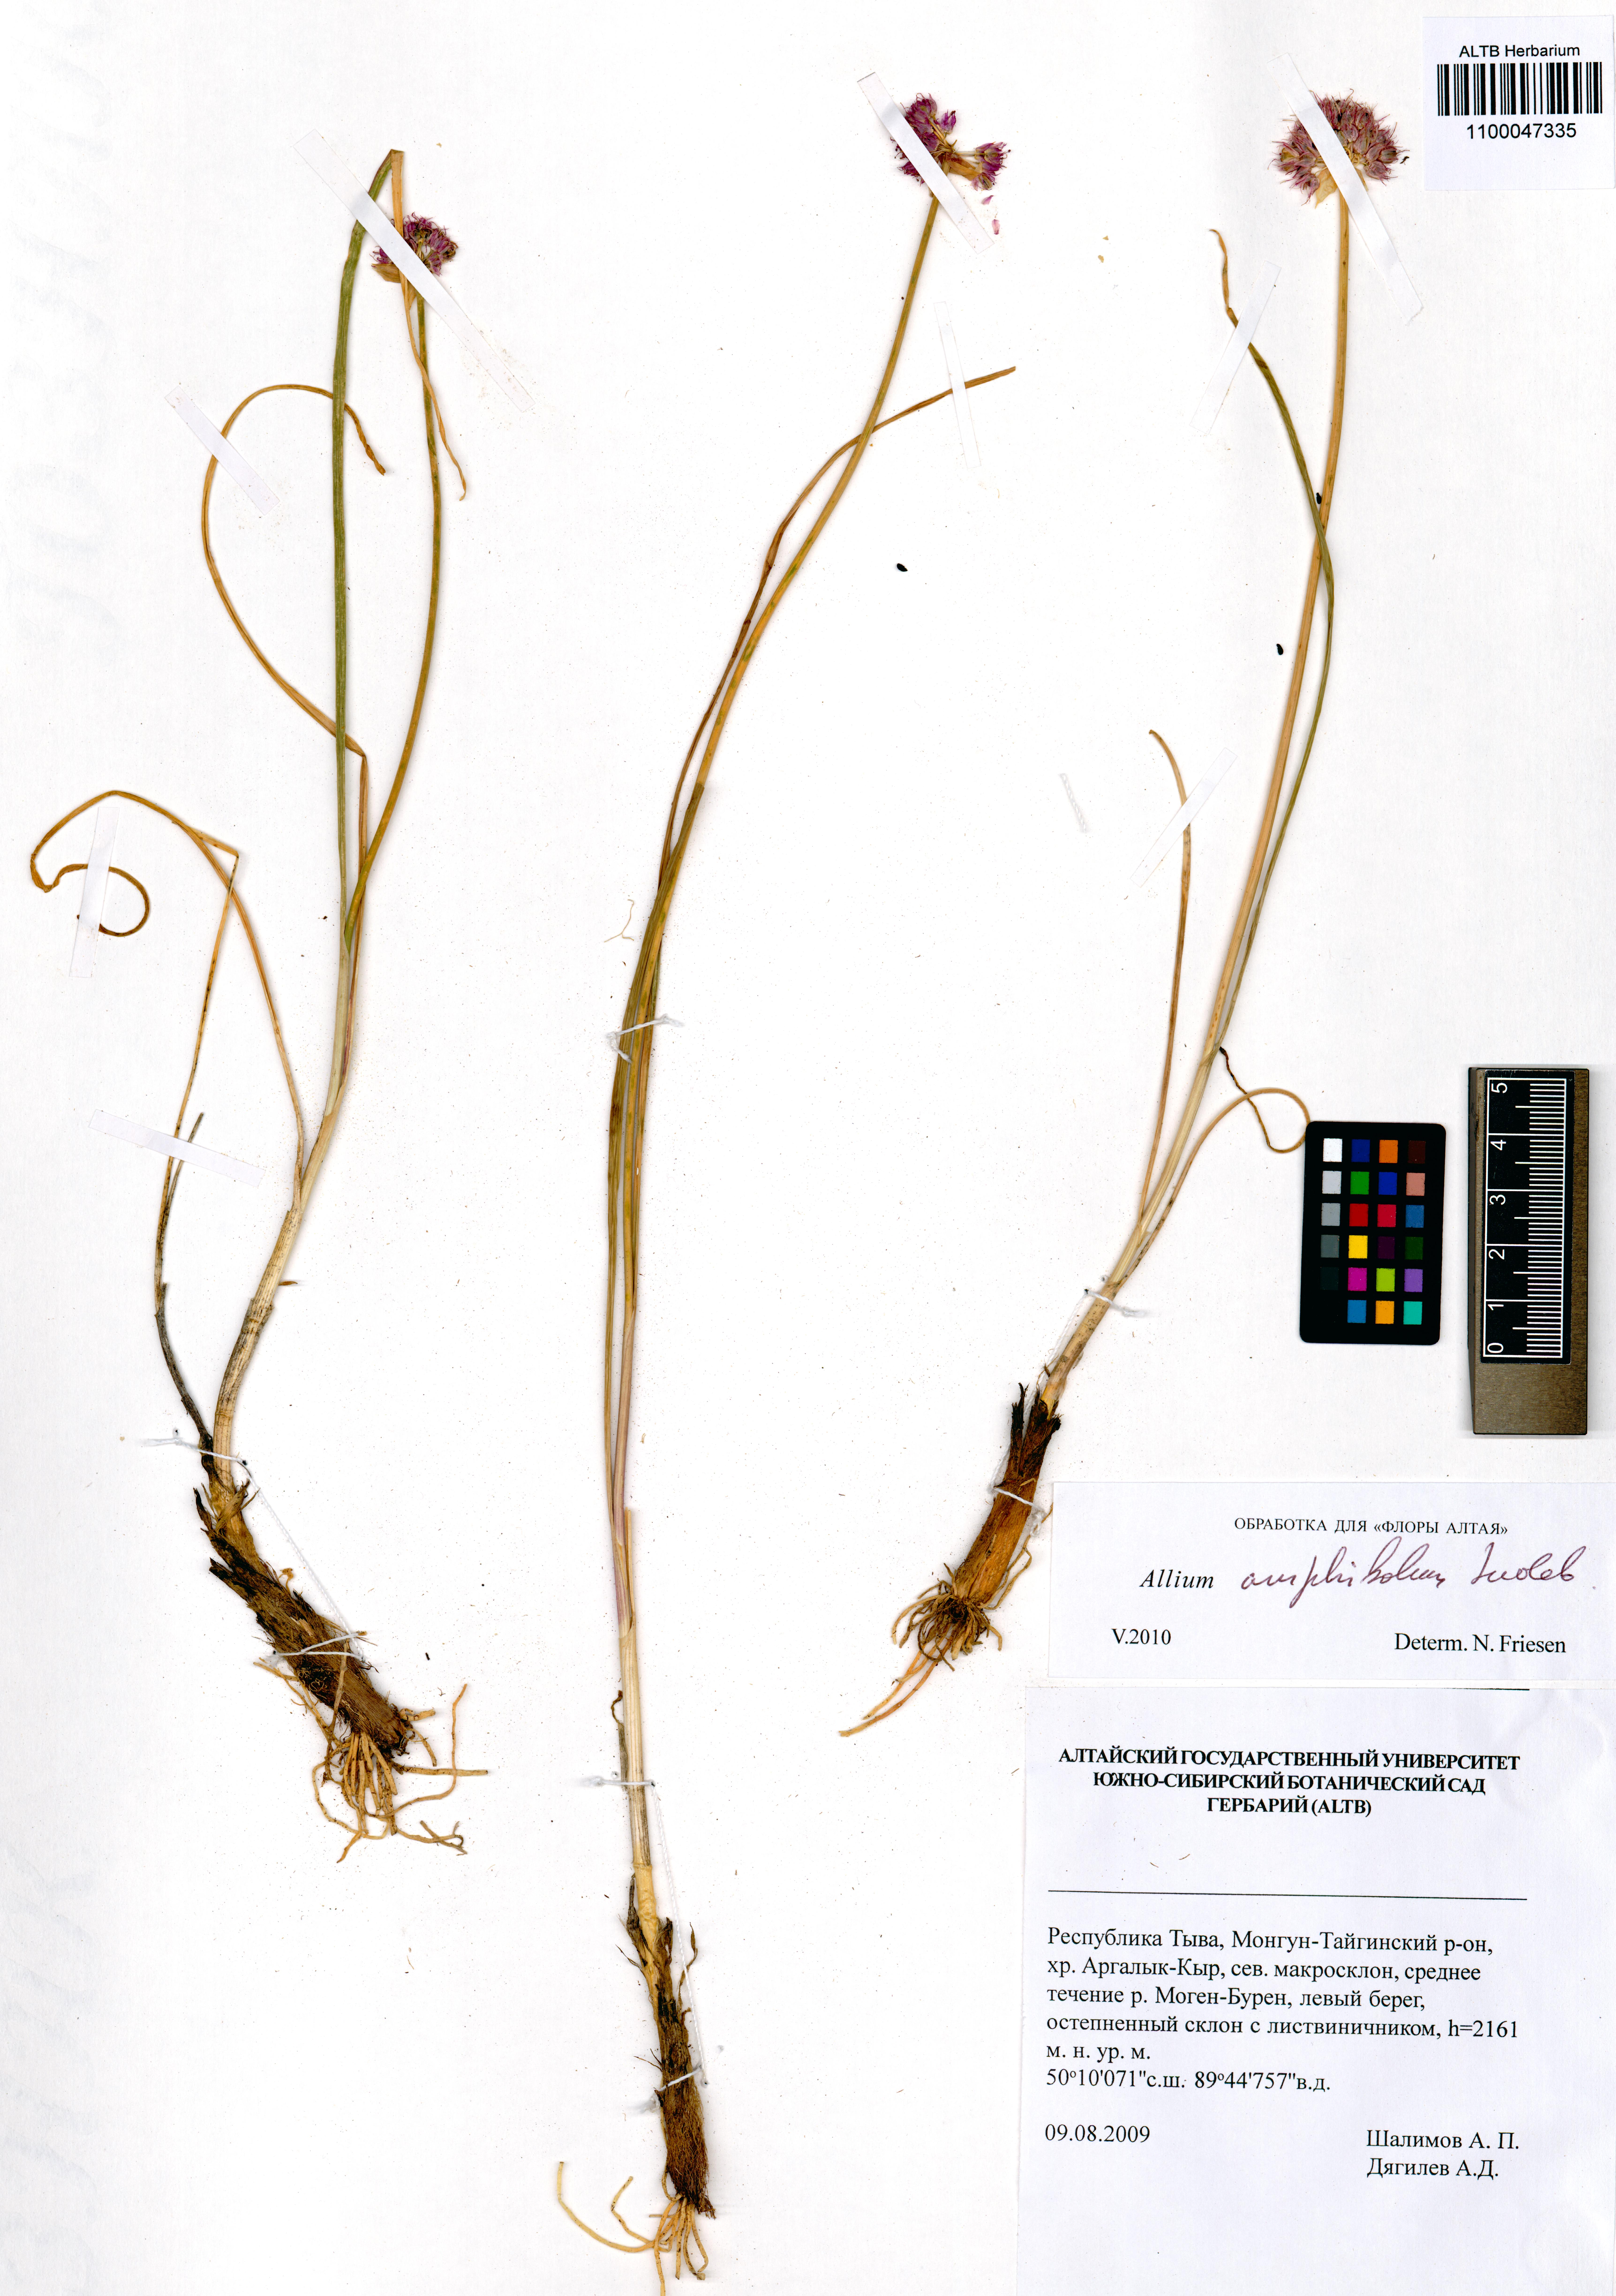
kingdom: Plantae
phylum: Tracheophyta
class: Liliopsida
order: Asparagales
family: Amaryllidaceae
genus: Allium
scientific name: Allium amphibolum
